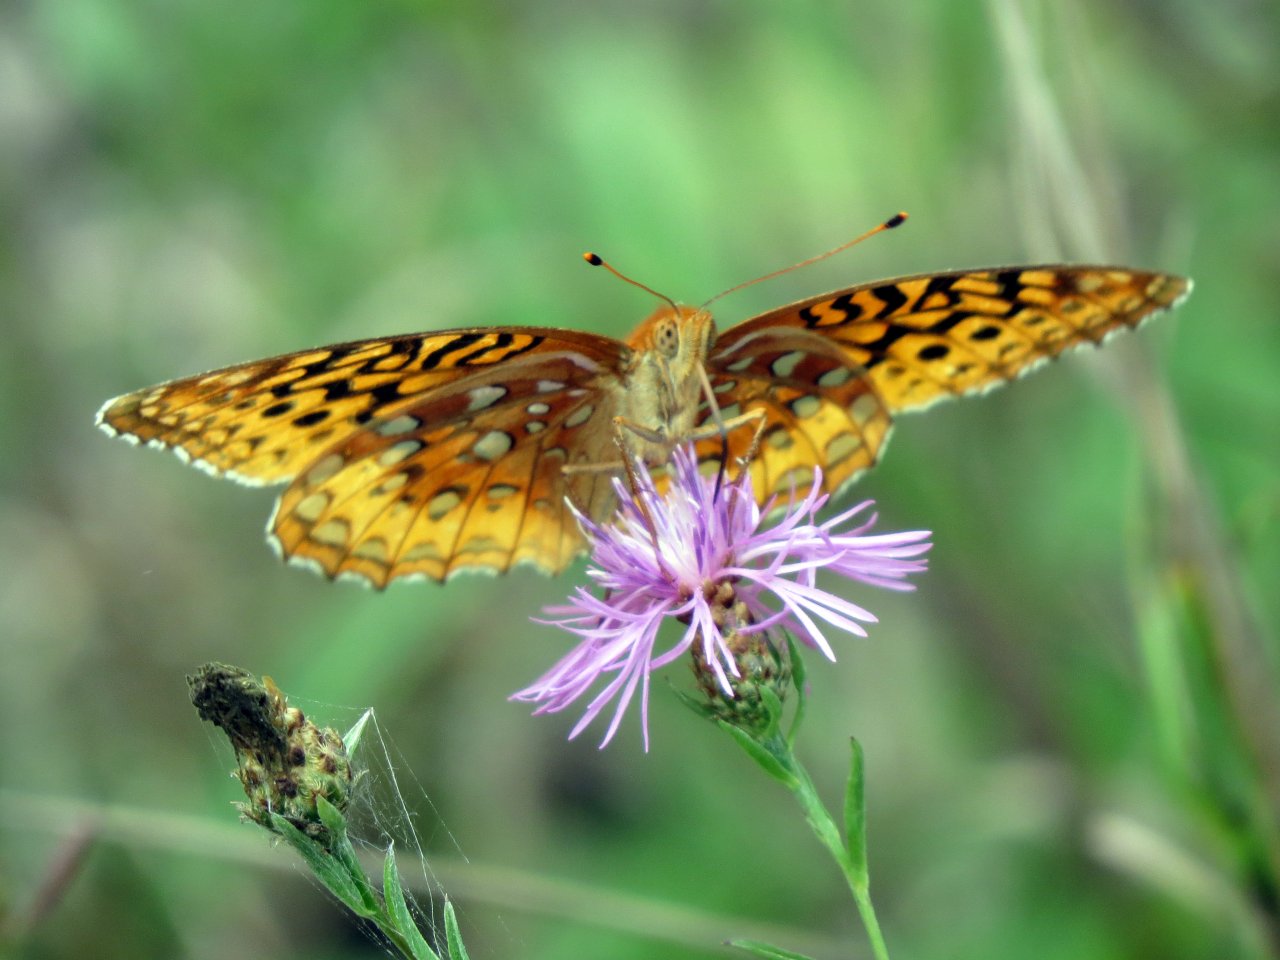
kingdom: Animalia
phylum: Arthropoda
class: Insecta
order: Lepidoptera
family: Nymphalidae
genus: Speyeria
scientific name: Speyeria cybele
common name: Great Spangled Fritillary
